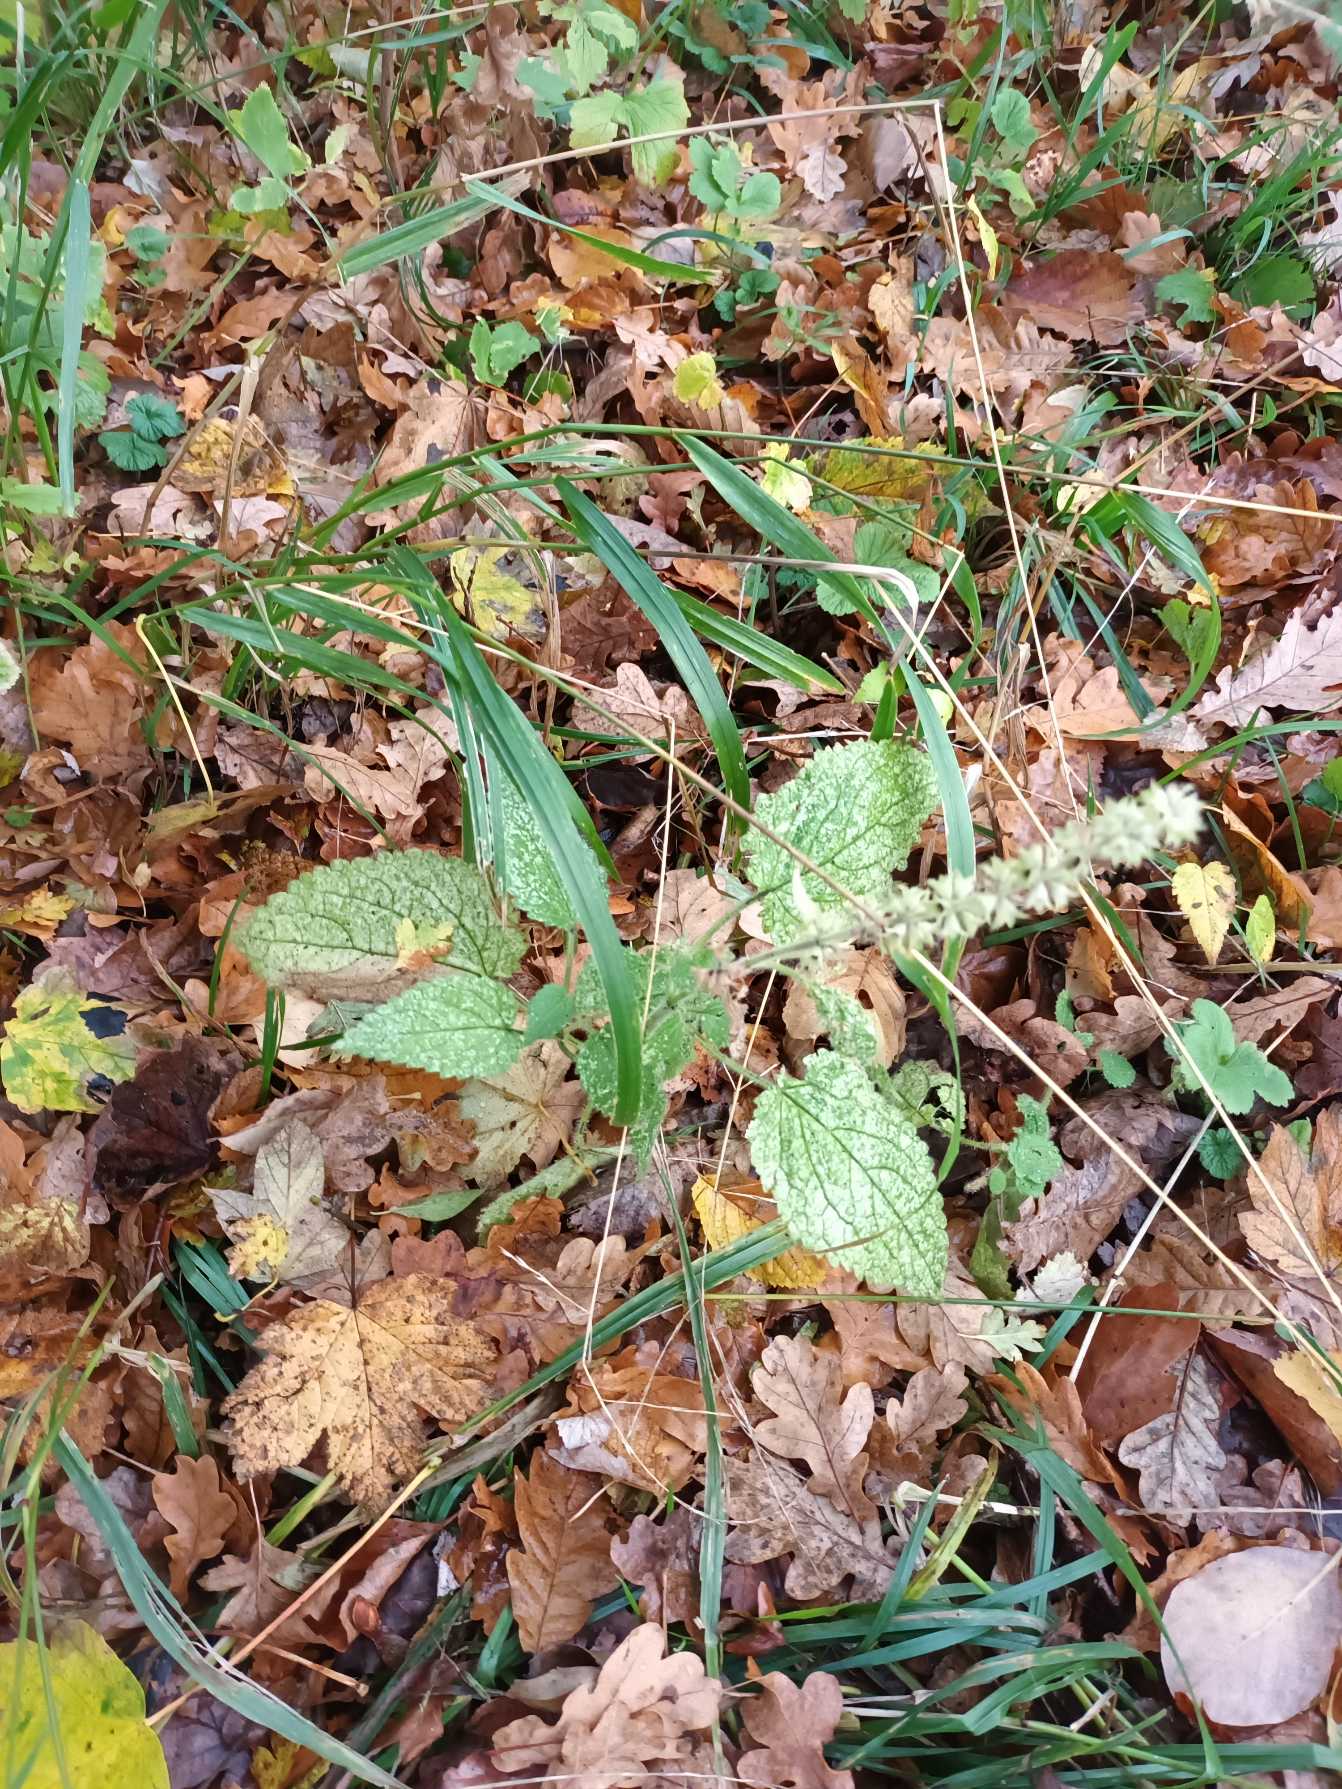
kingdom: Plantae
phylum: Tracheophyta
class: Magnoliopsida
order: Lamiales
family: Lamiaceae
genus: Stachys
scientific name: Stachys sylvatica
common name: Skov-galtetand
